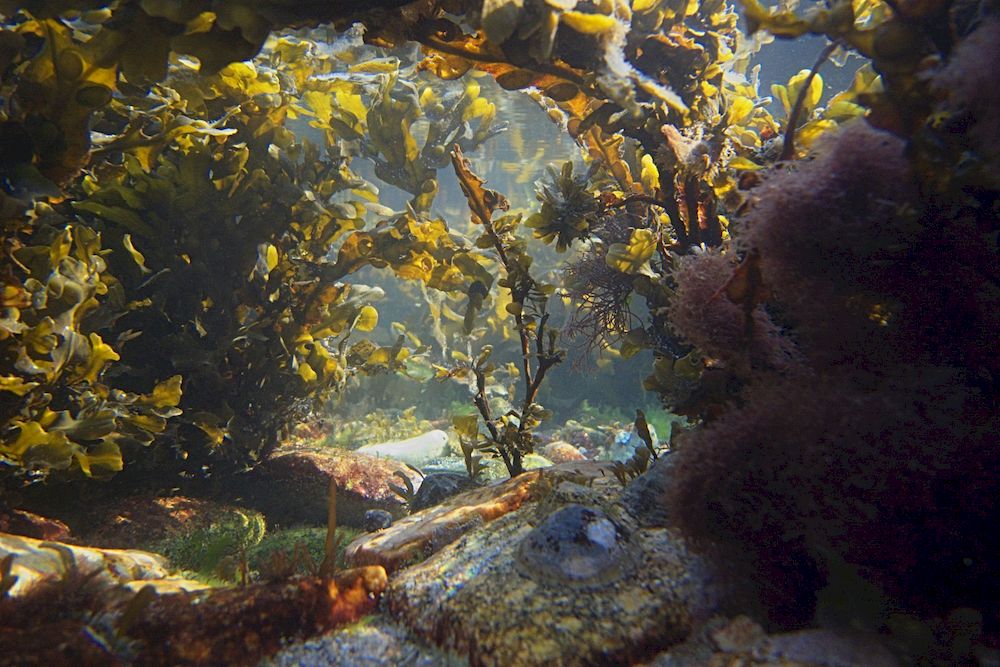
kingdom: Chromista
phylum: Ochrophyta
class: Phaeophyceae
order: Fucales
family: Fucaceae
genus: Fucus
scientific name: Fucus vesiculosus
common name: Bladder wrack
